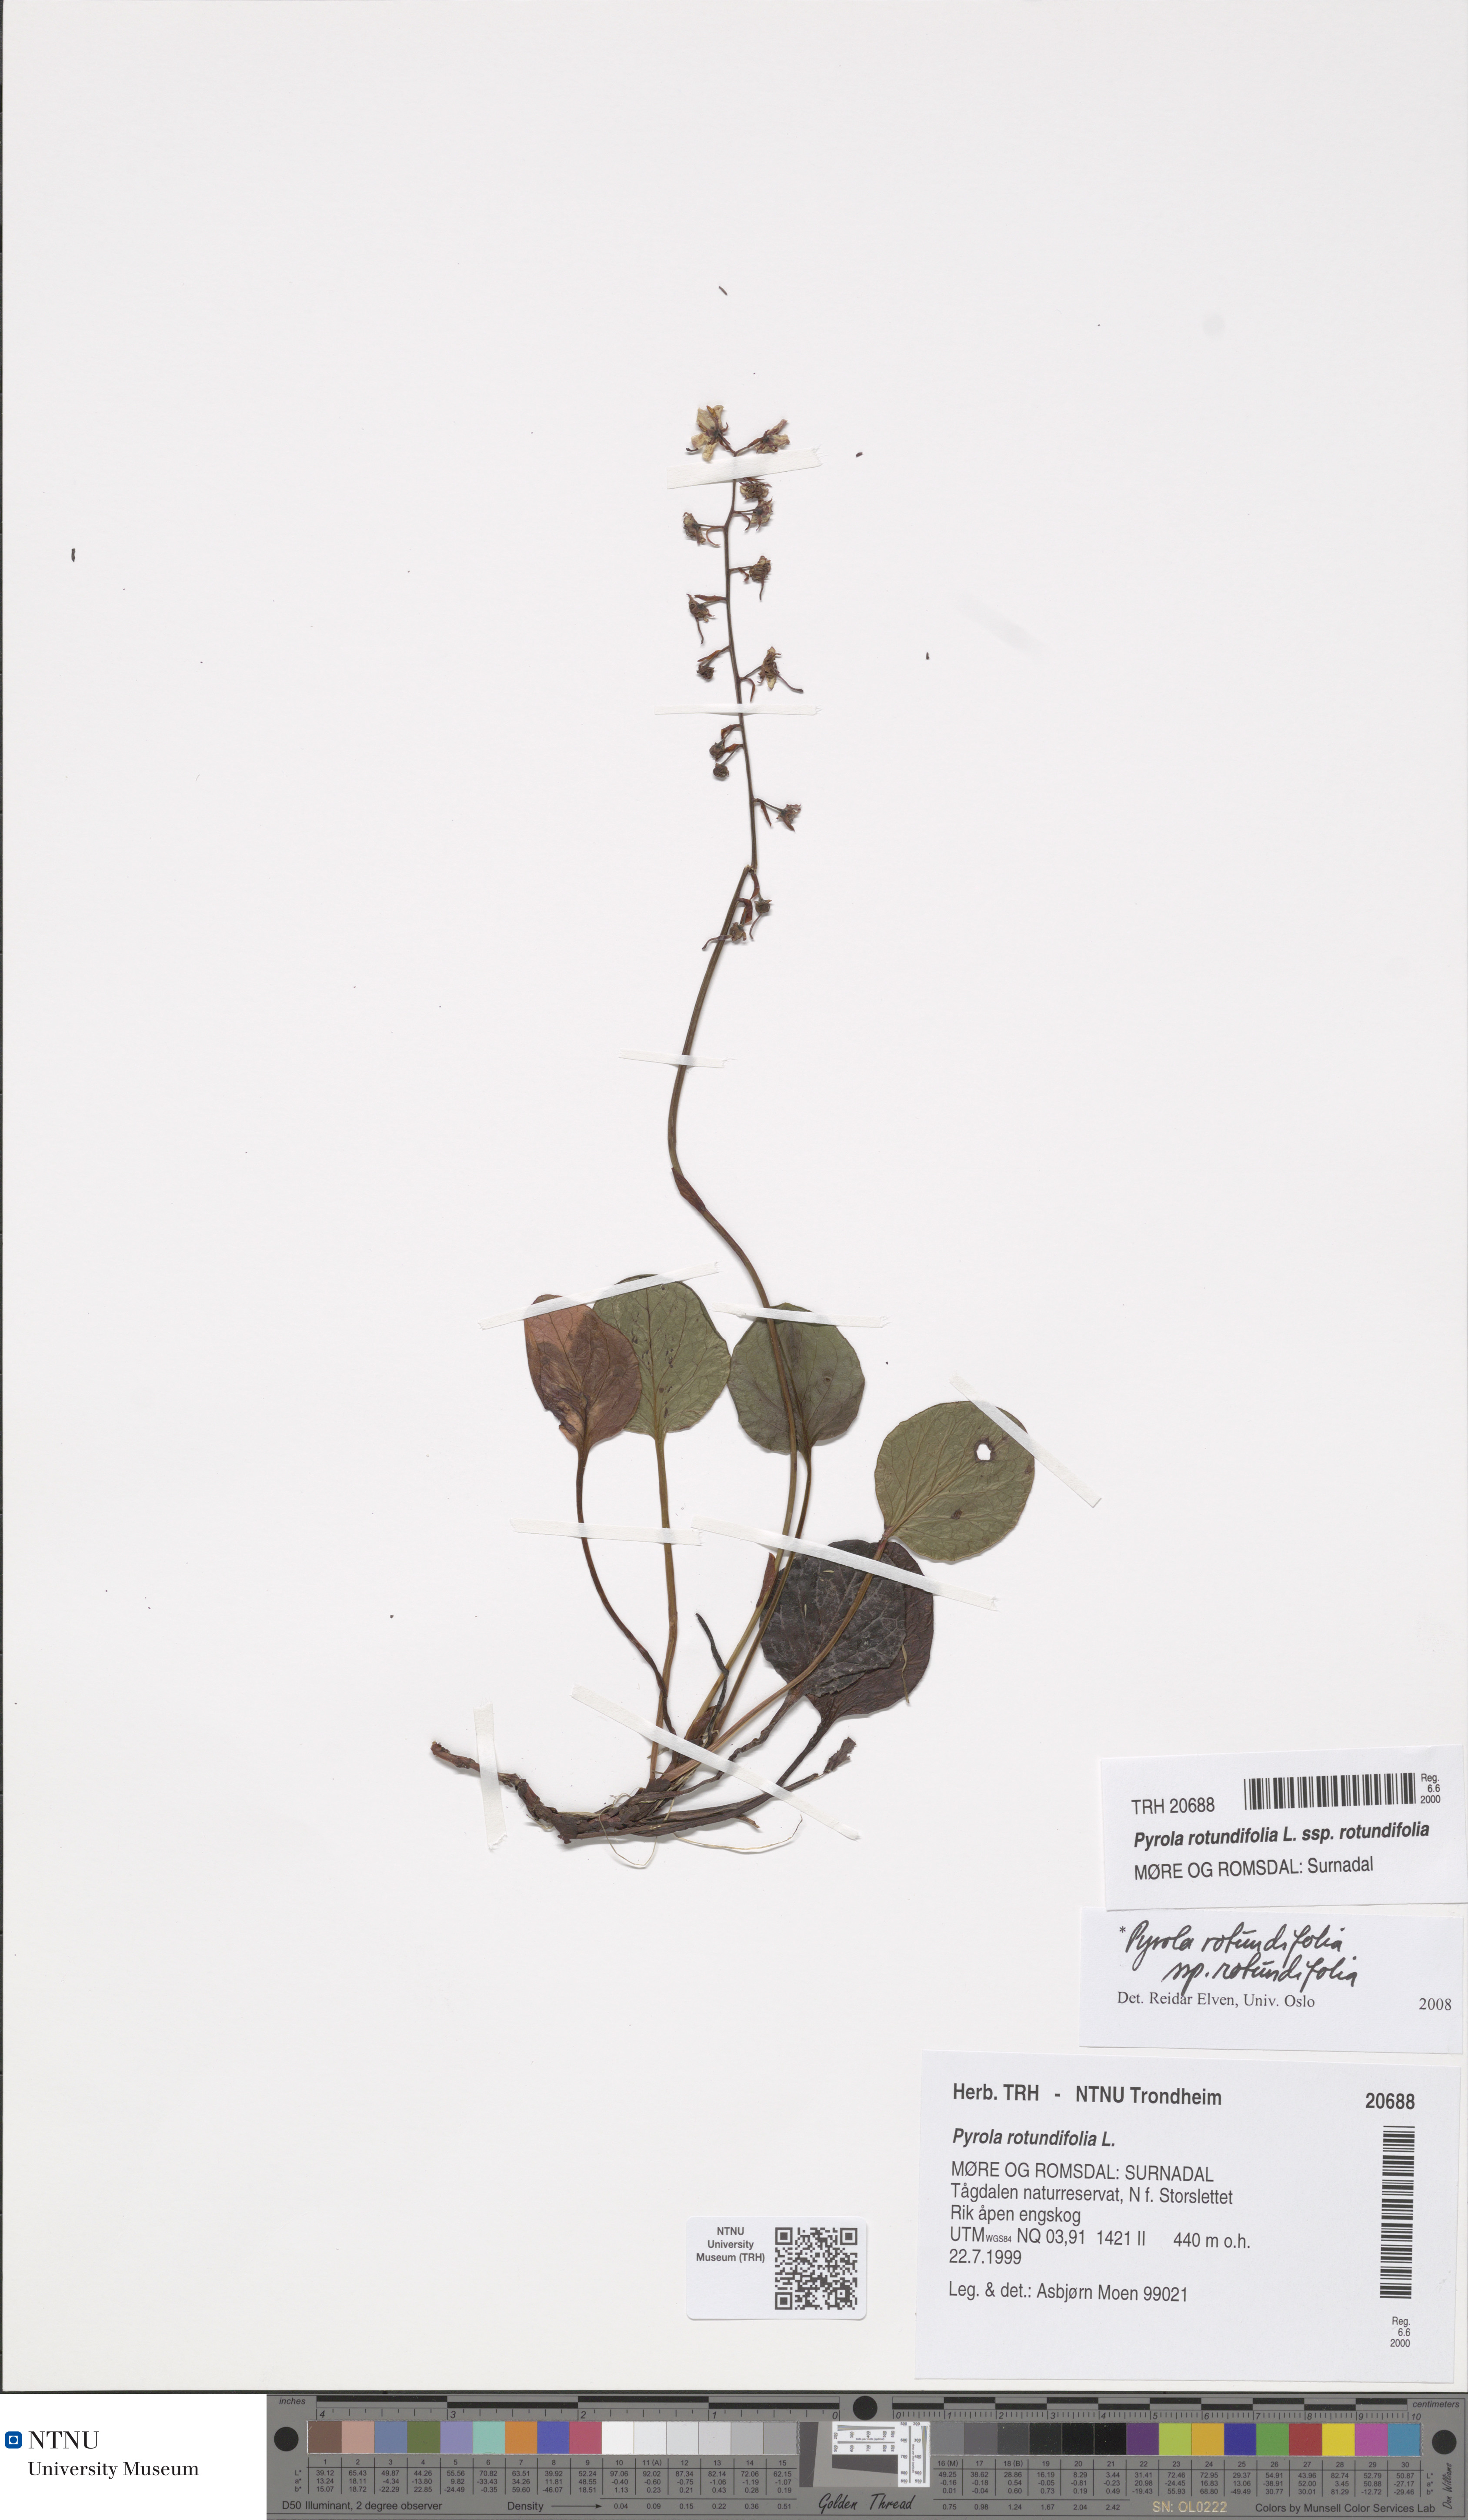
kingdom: Plantae
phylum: Tracheophyta
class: Magnoliopsida
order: Ericales
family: Ericaceae
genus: Pyrola
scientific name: Pyrola rotundifolia
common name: Round-leaved wintergreen
